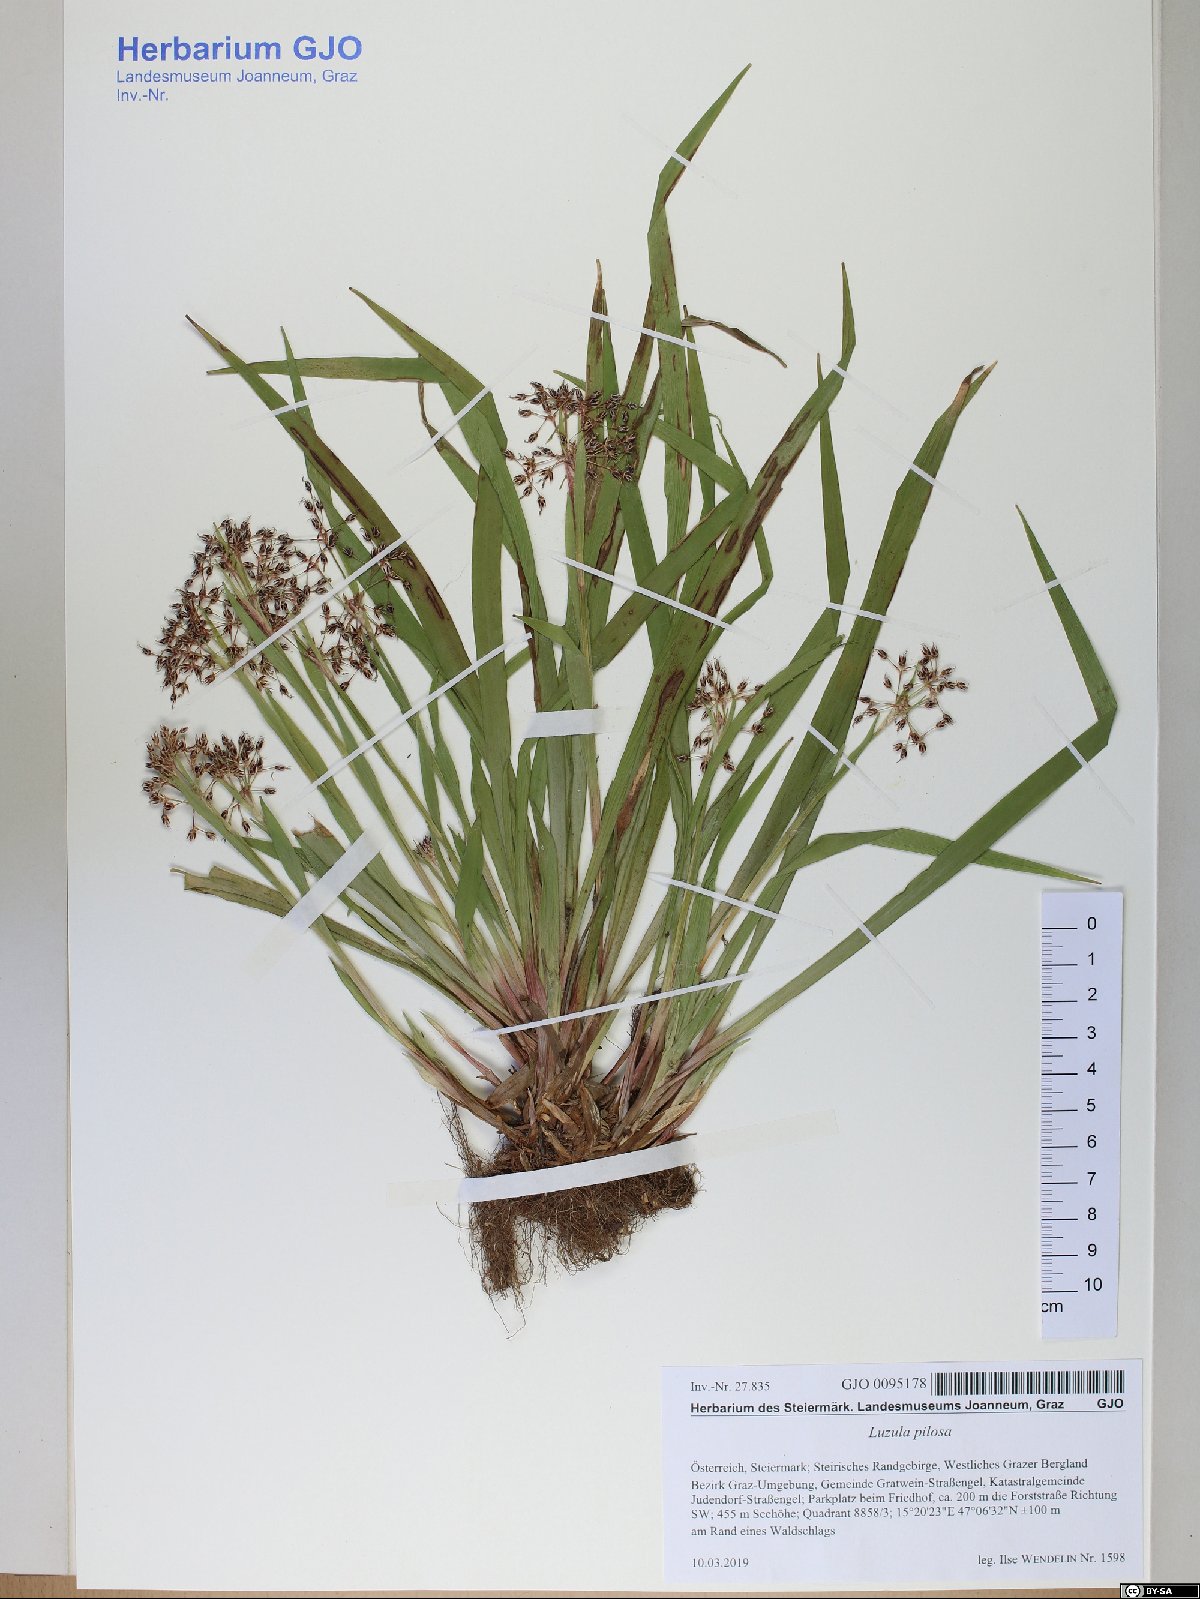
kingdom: Plantae
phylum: Tracheophyta
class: Liliopsida
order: Poales
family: Juncaceae
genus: Luzula
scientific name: Luzula pilosa
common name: Hairy wood-rush
